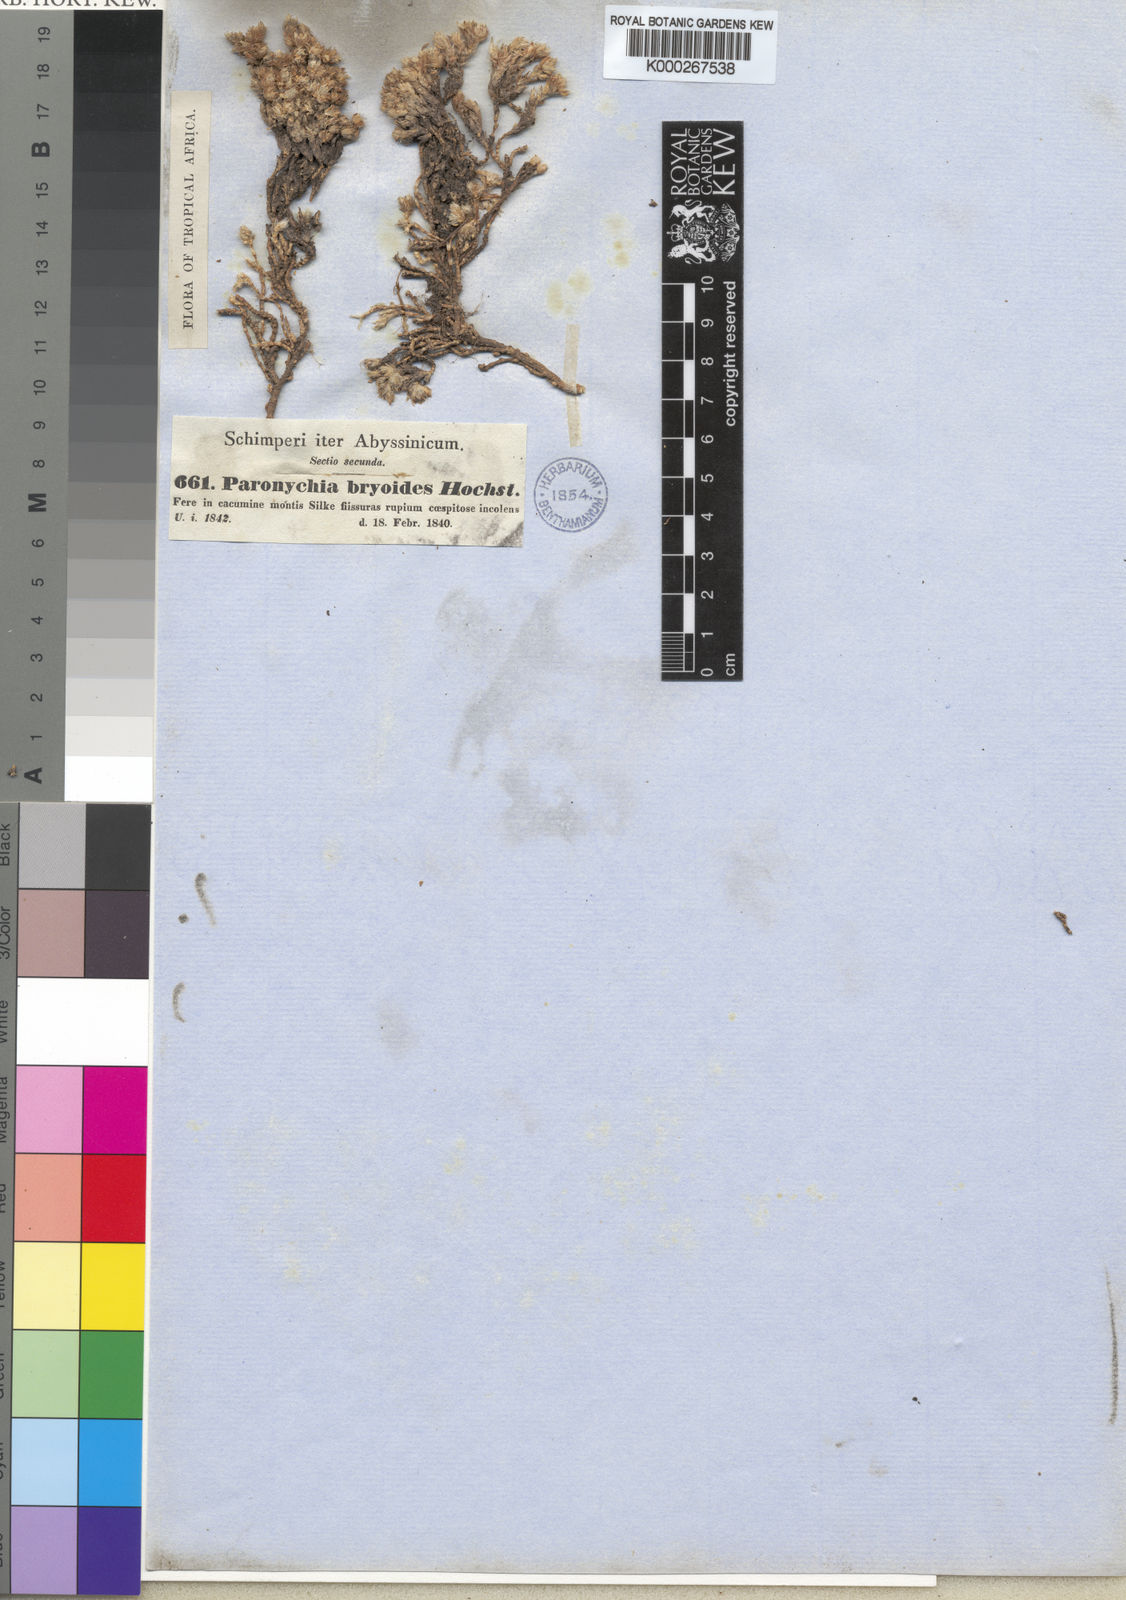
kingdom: Plantae
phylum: Tracheophyta
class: Magnoliopsida
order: Caryophyllales
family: Caryophyllaceae
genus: Paronychia
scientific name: Paronychia bryoides
